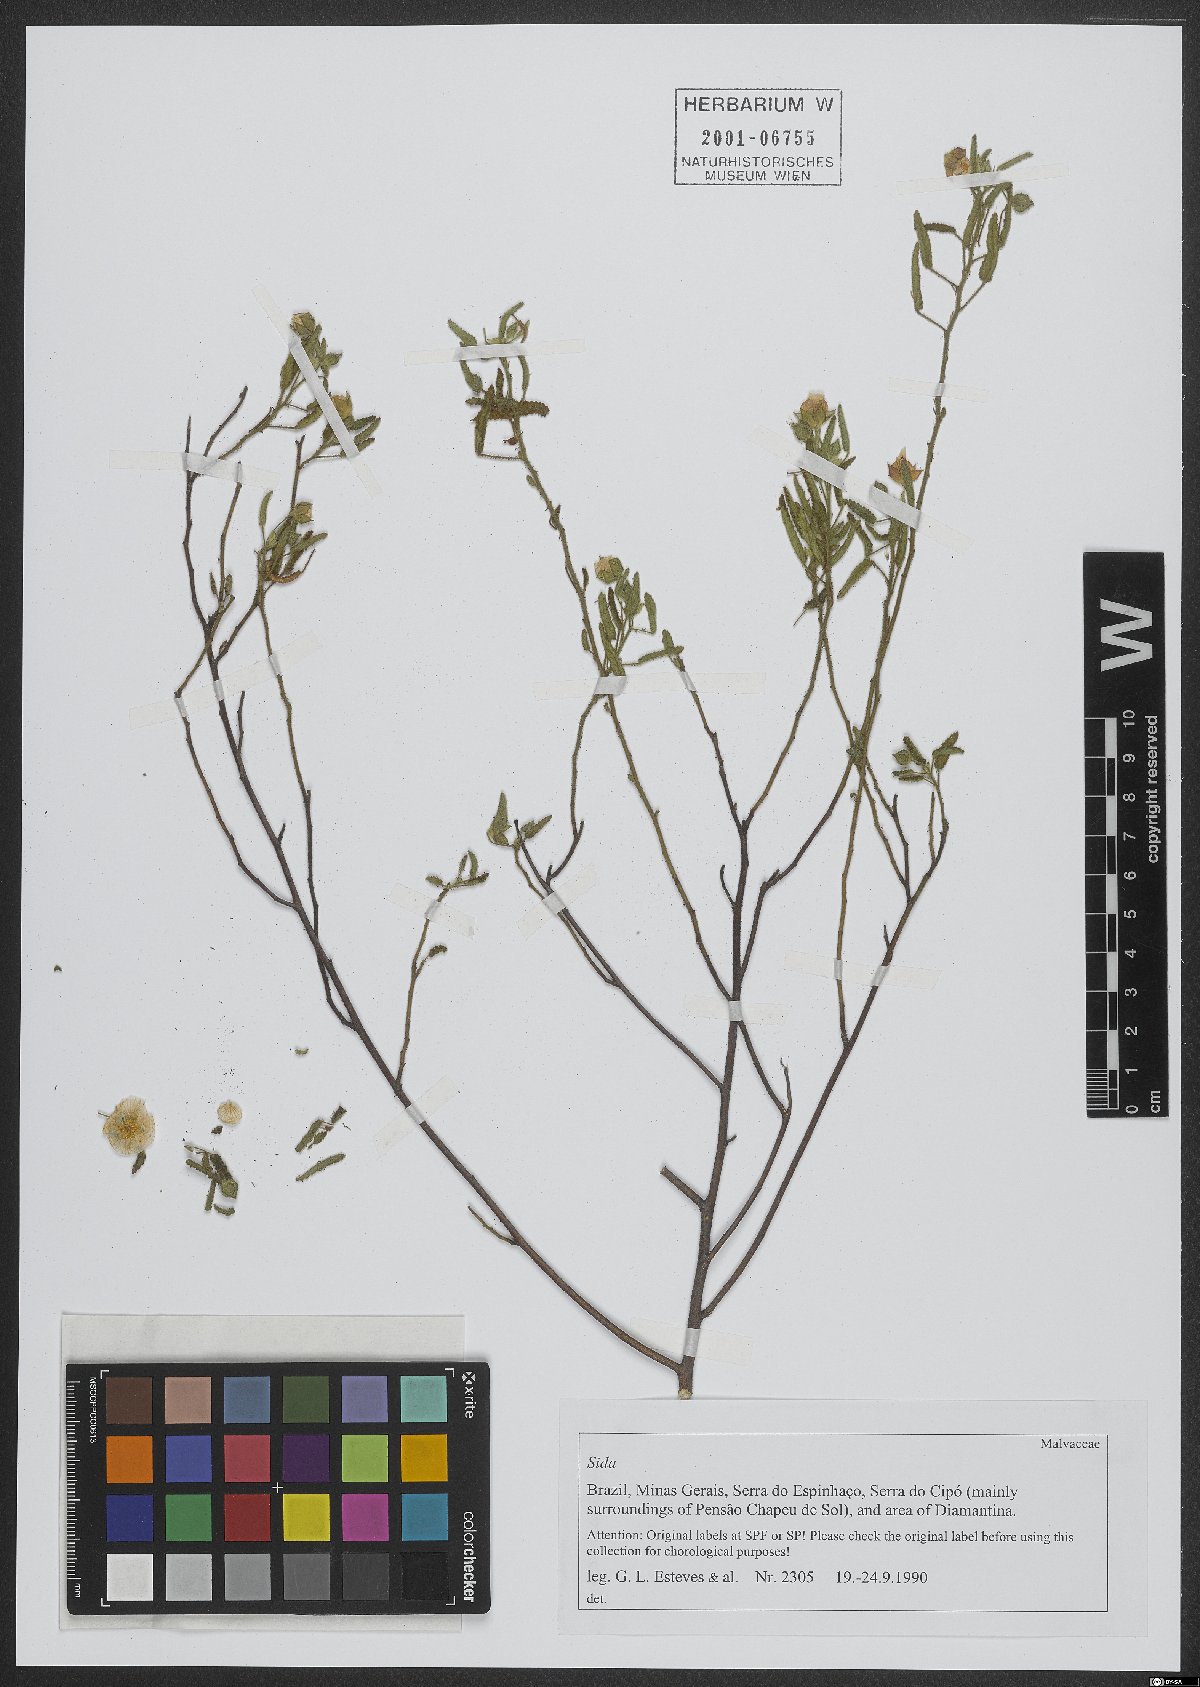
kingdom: Plantae
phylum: Tracheophyta
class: Magnoliopsida
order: Malvales
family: Malvaceae
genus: Sida
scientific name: Sida
